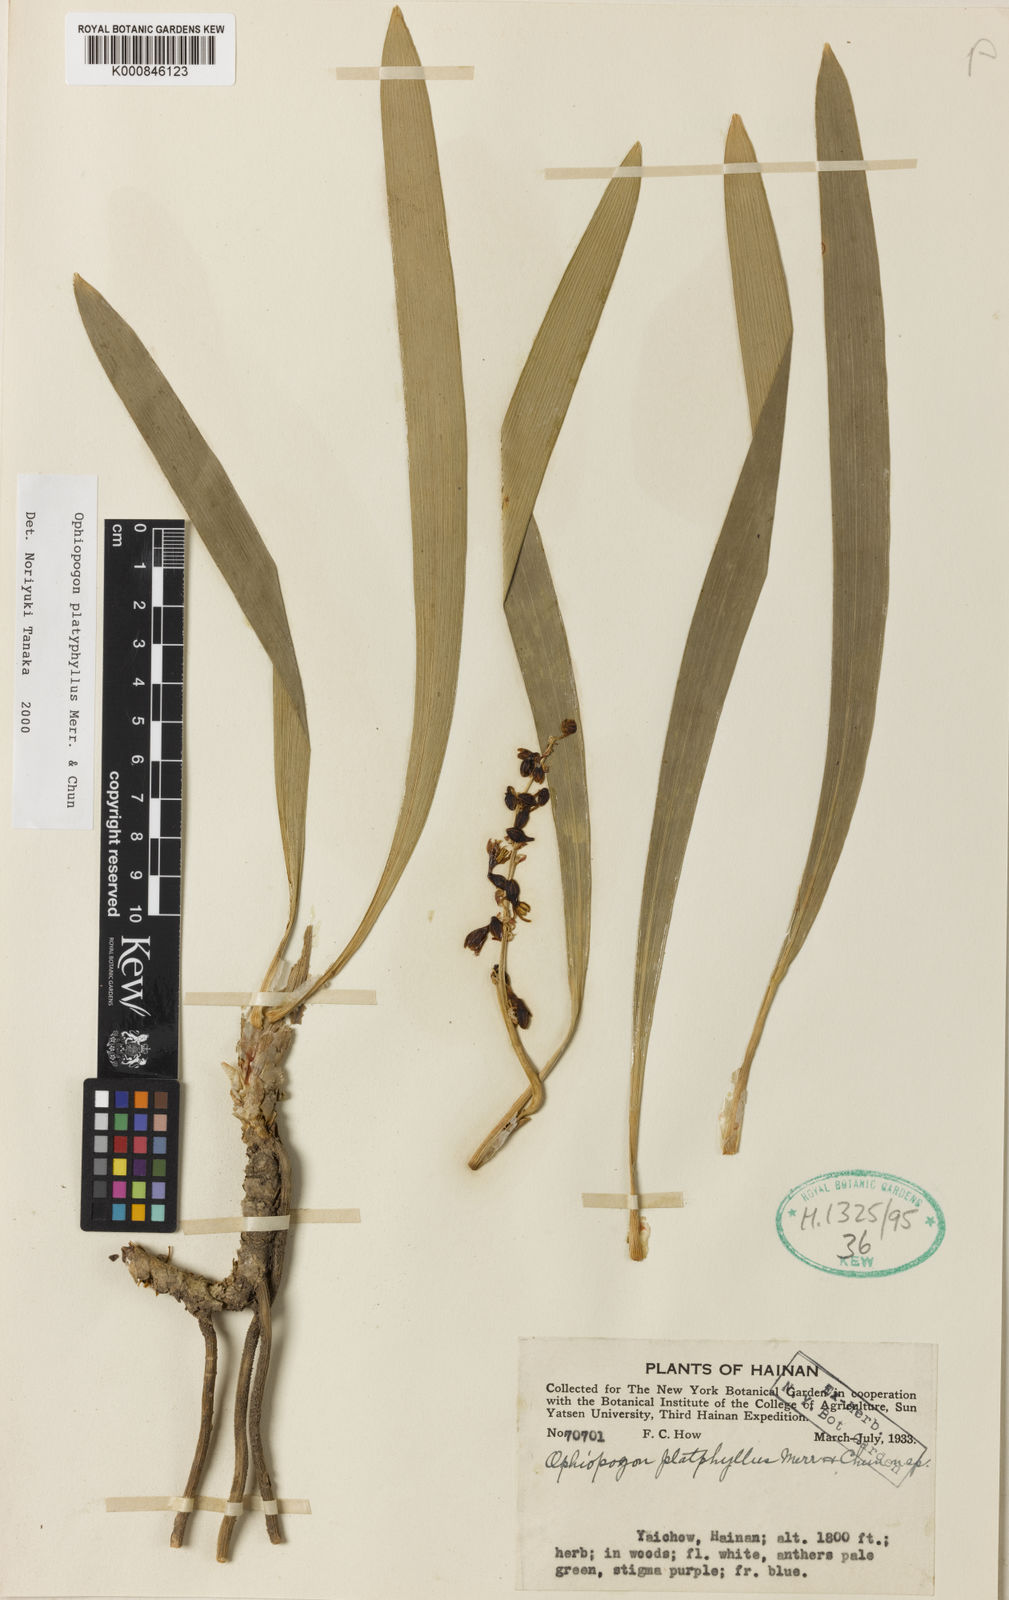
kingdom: Plantae
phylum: Tracheophyta
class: Liliopsida
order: Asparagales
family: Asparagaceae
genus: Ophiopogon
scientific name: Ophiopogon platyphyllus
